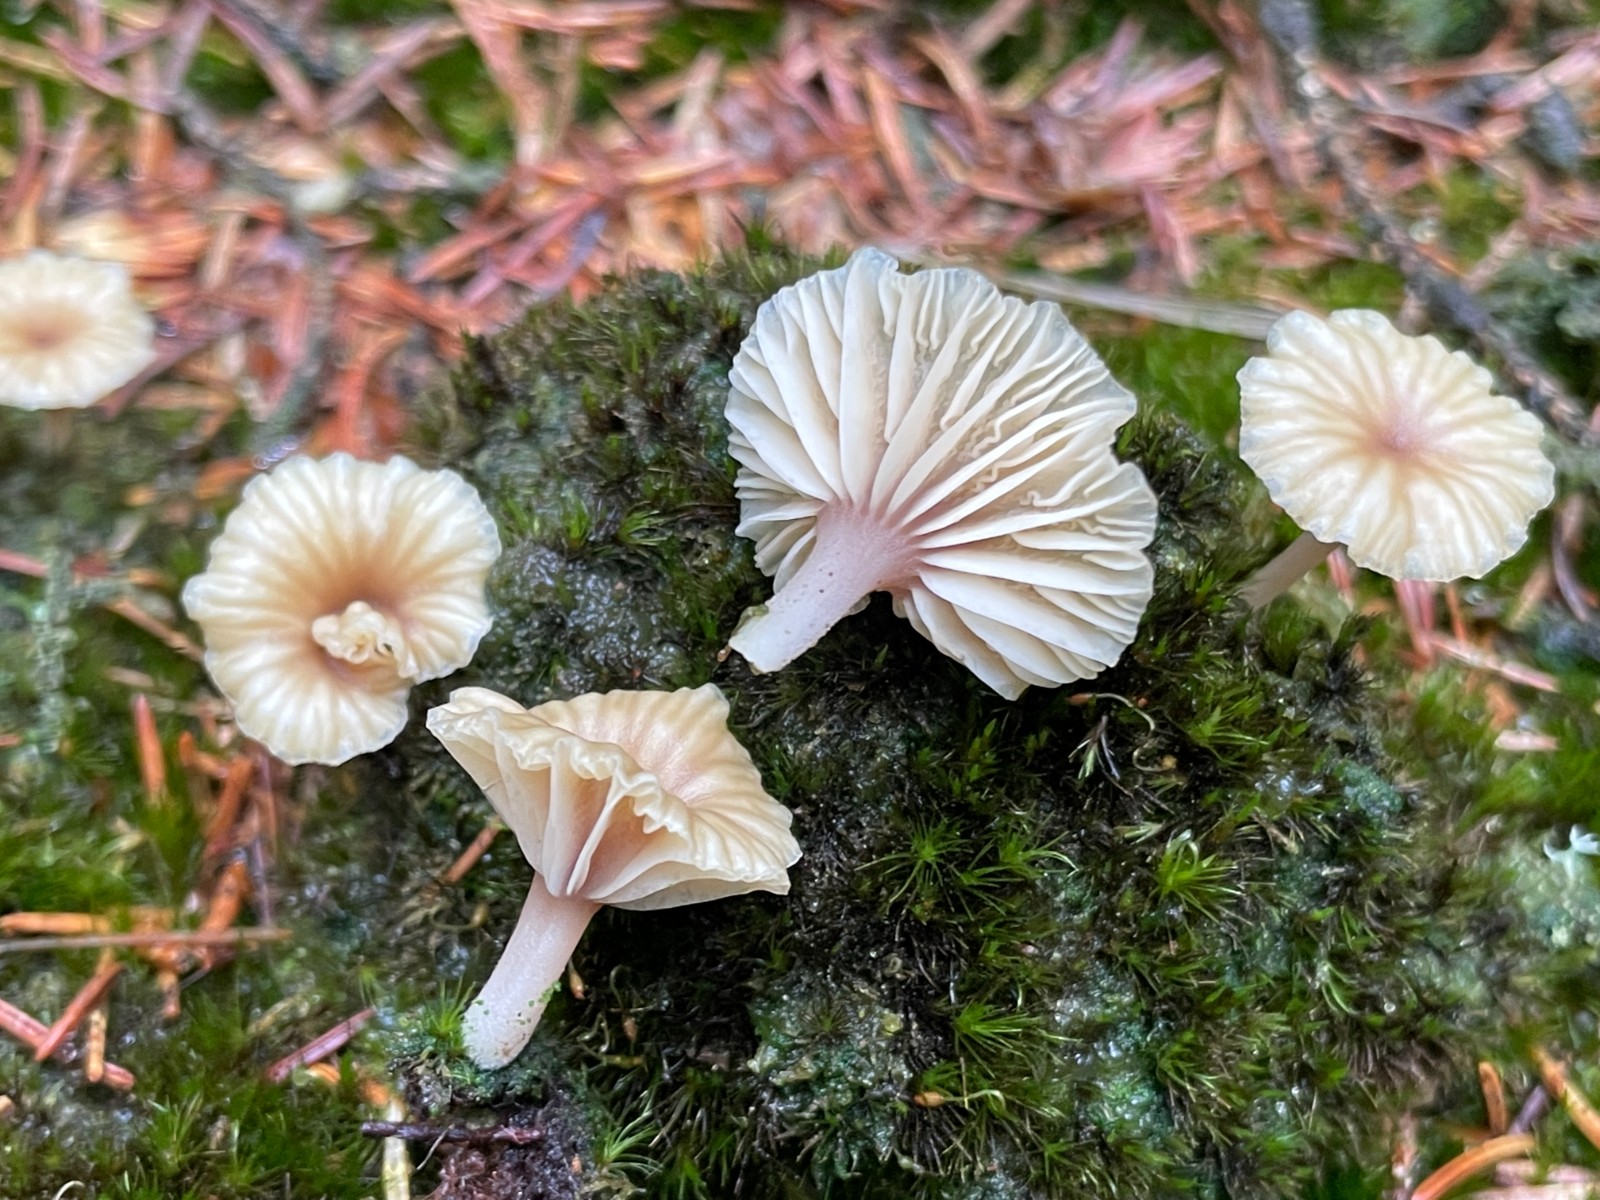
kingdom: Fungi
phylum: Basidiomycota
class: Agaricomycetes
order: Agaricales
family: Hygrophoraceae
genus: Lichenomphalia
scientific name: Lichenomphalia umbellifera
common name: tørve-lavhat
